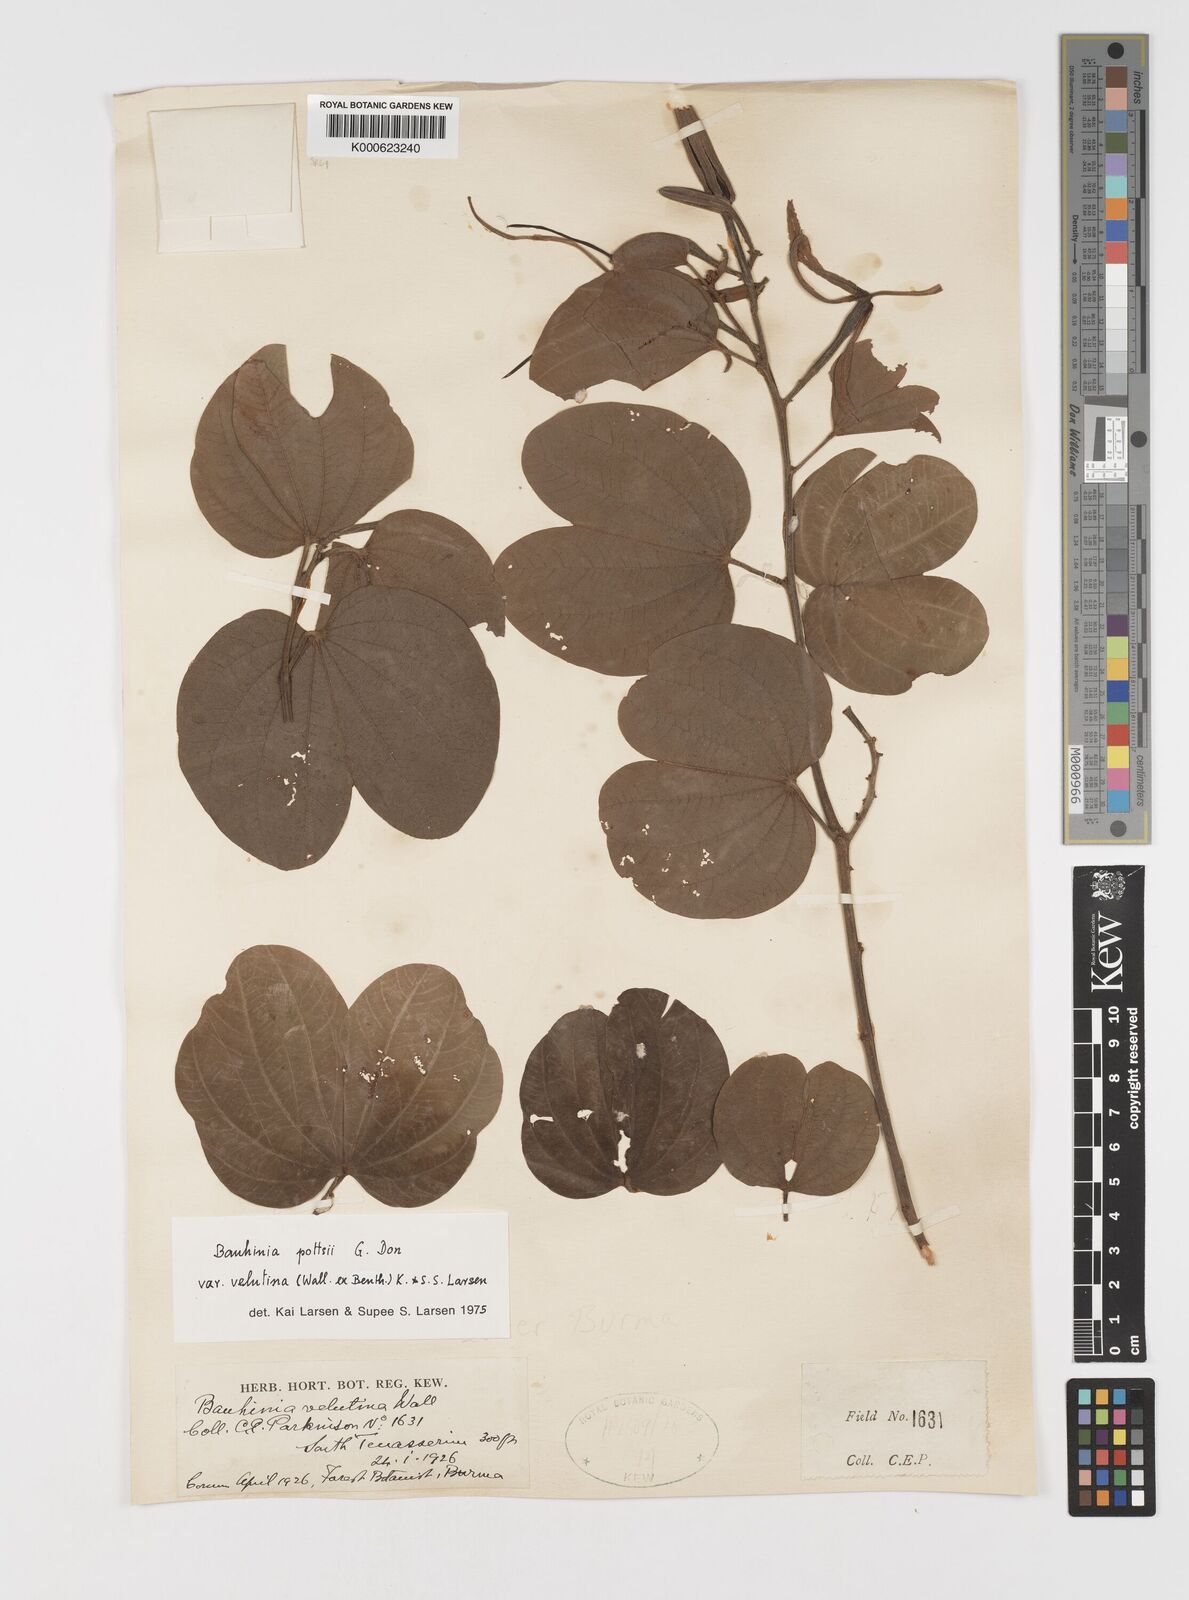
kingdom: Plantae
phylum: Tracheophyta
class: Magnoliopsida
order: Fabales
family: Fabaceae
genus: Bauhinia
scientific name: Bauhinia pottsii
